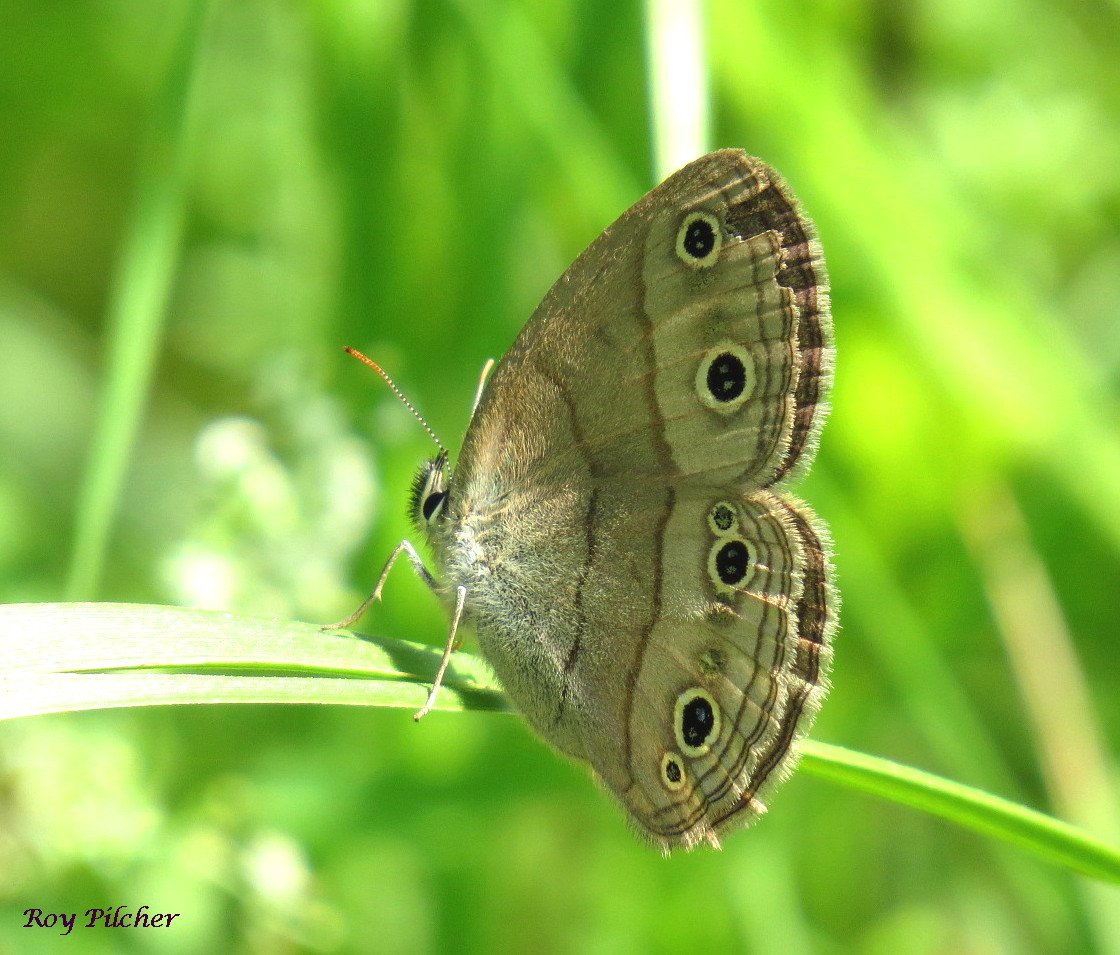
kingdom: Animalia
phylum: Arthropoda
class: Insecta
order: Lepidoptera
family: Nymphalidae
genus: Euptychia
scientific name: Euptychia cymela
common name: Little Wood Satyr
